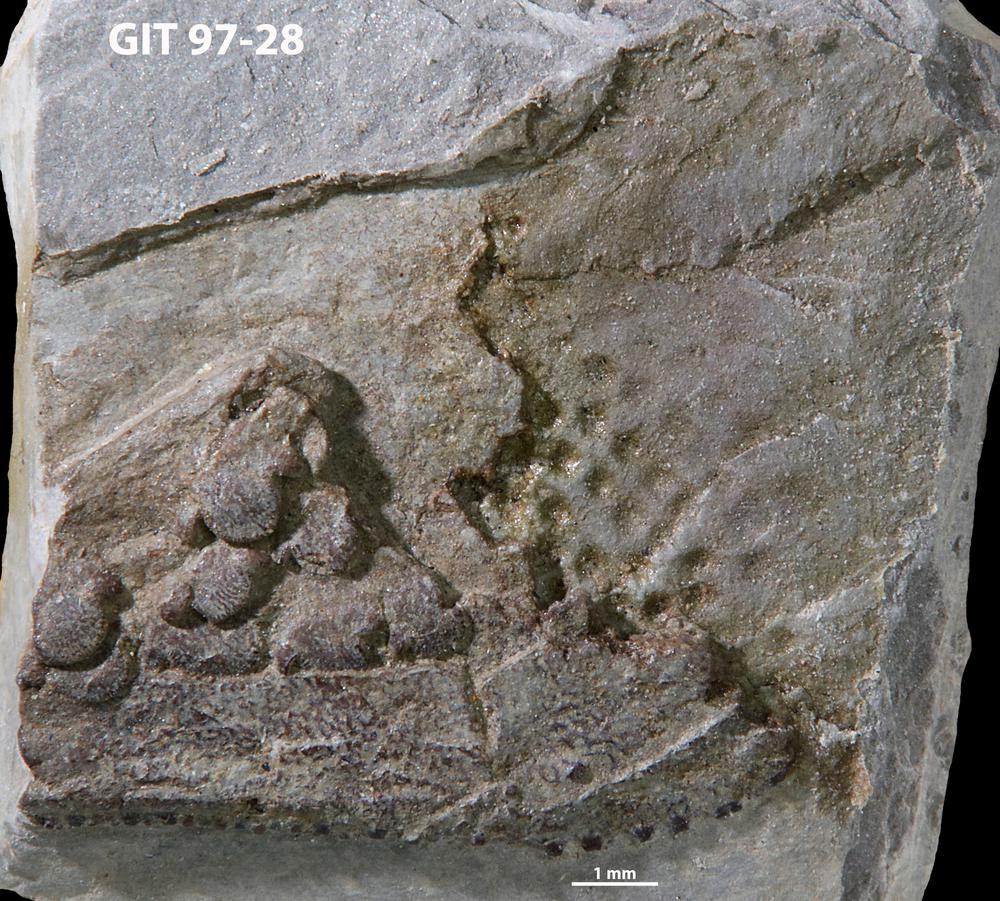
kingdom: Animalia
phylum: Chordata
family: Holonematidae
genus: Holonema
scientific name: Holonema
